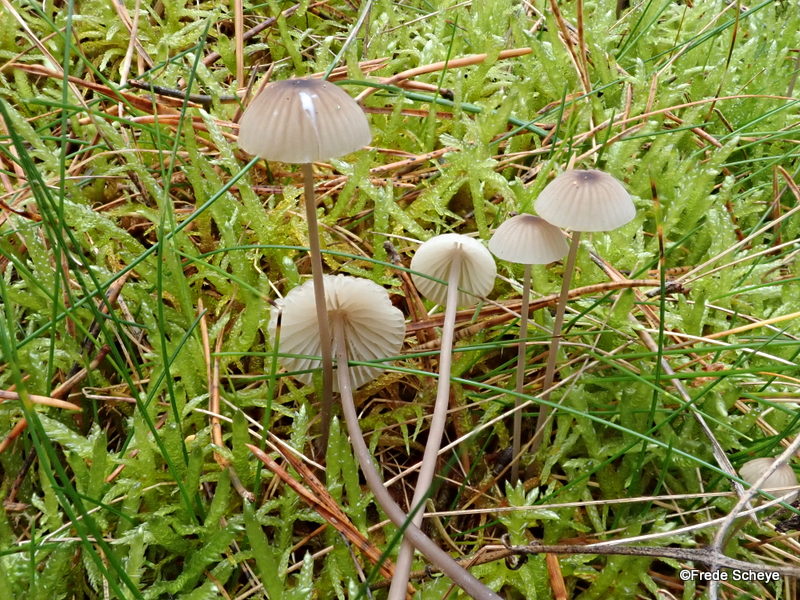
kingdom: Fungi
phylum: Basidiomycota
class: Agaricomycetes
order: Agaricales
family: Mycenaceae
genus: Mycena
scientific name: Mycena galopus
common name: hvidmælket huesvamp
